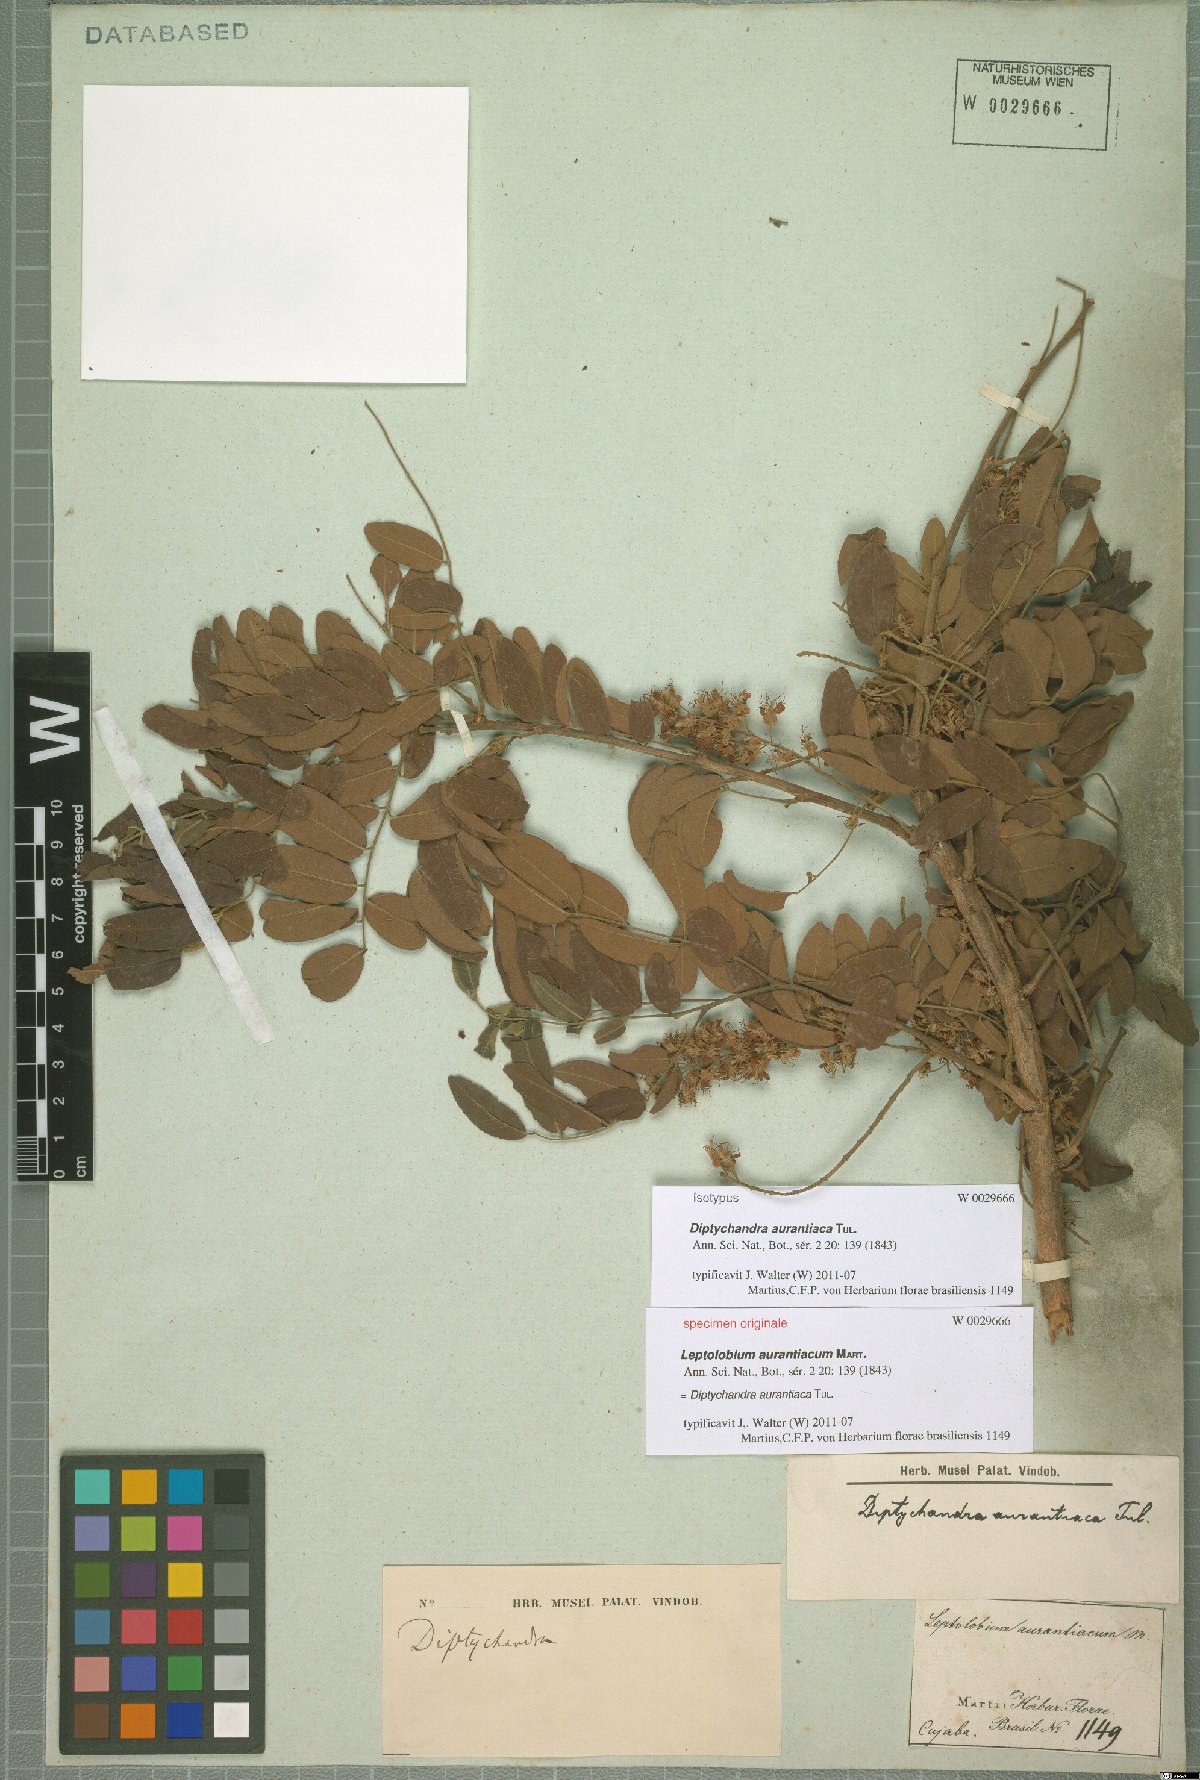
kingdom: Plantae
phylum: Tracheophyta
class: Magnoliopsida
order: Fabales
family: Fabaceae
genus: Diptychandra
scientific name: Diptychandra aurantiaca
